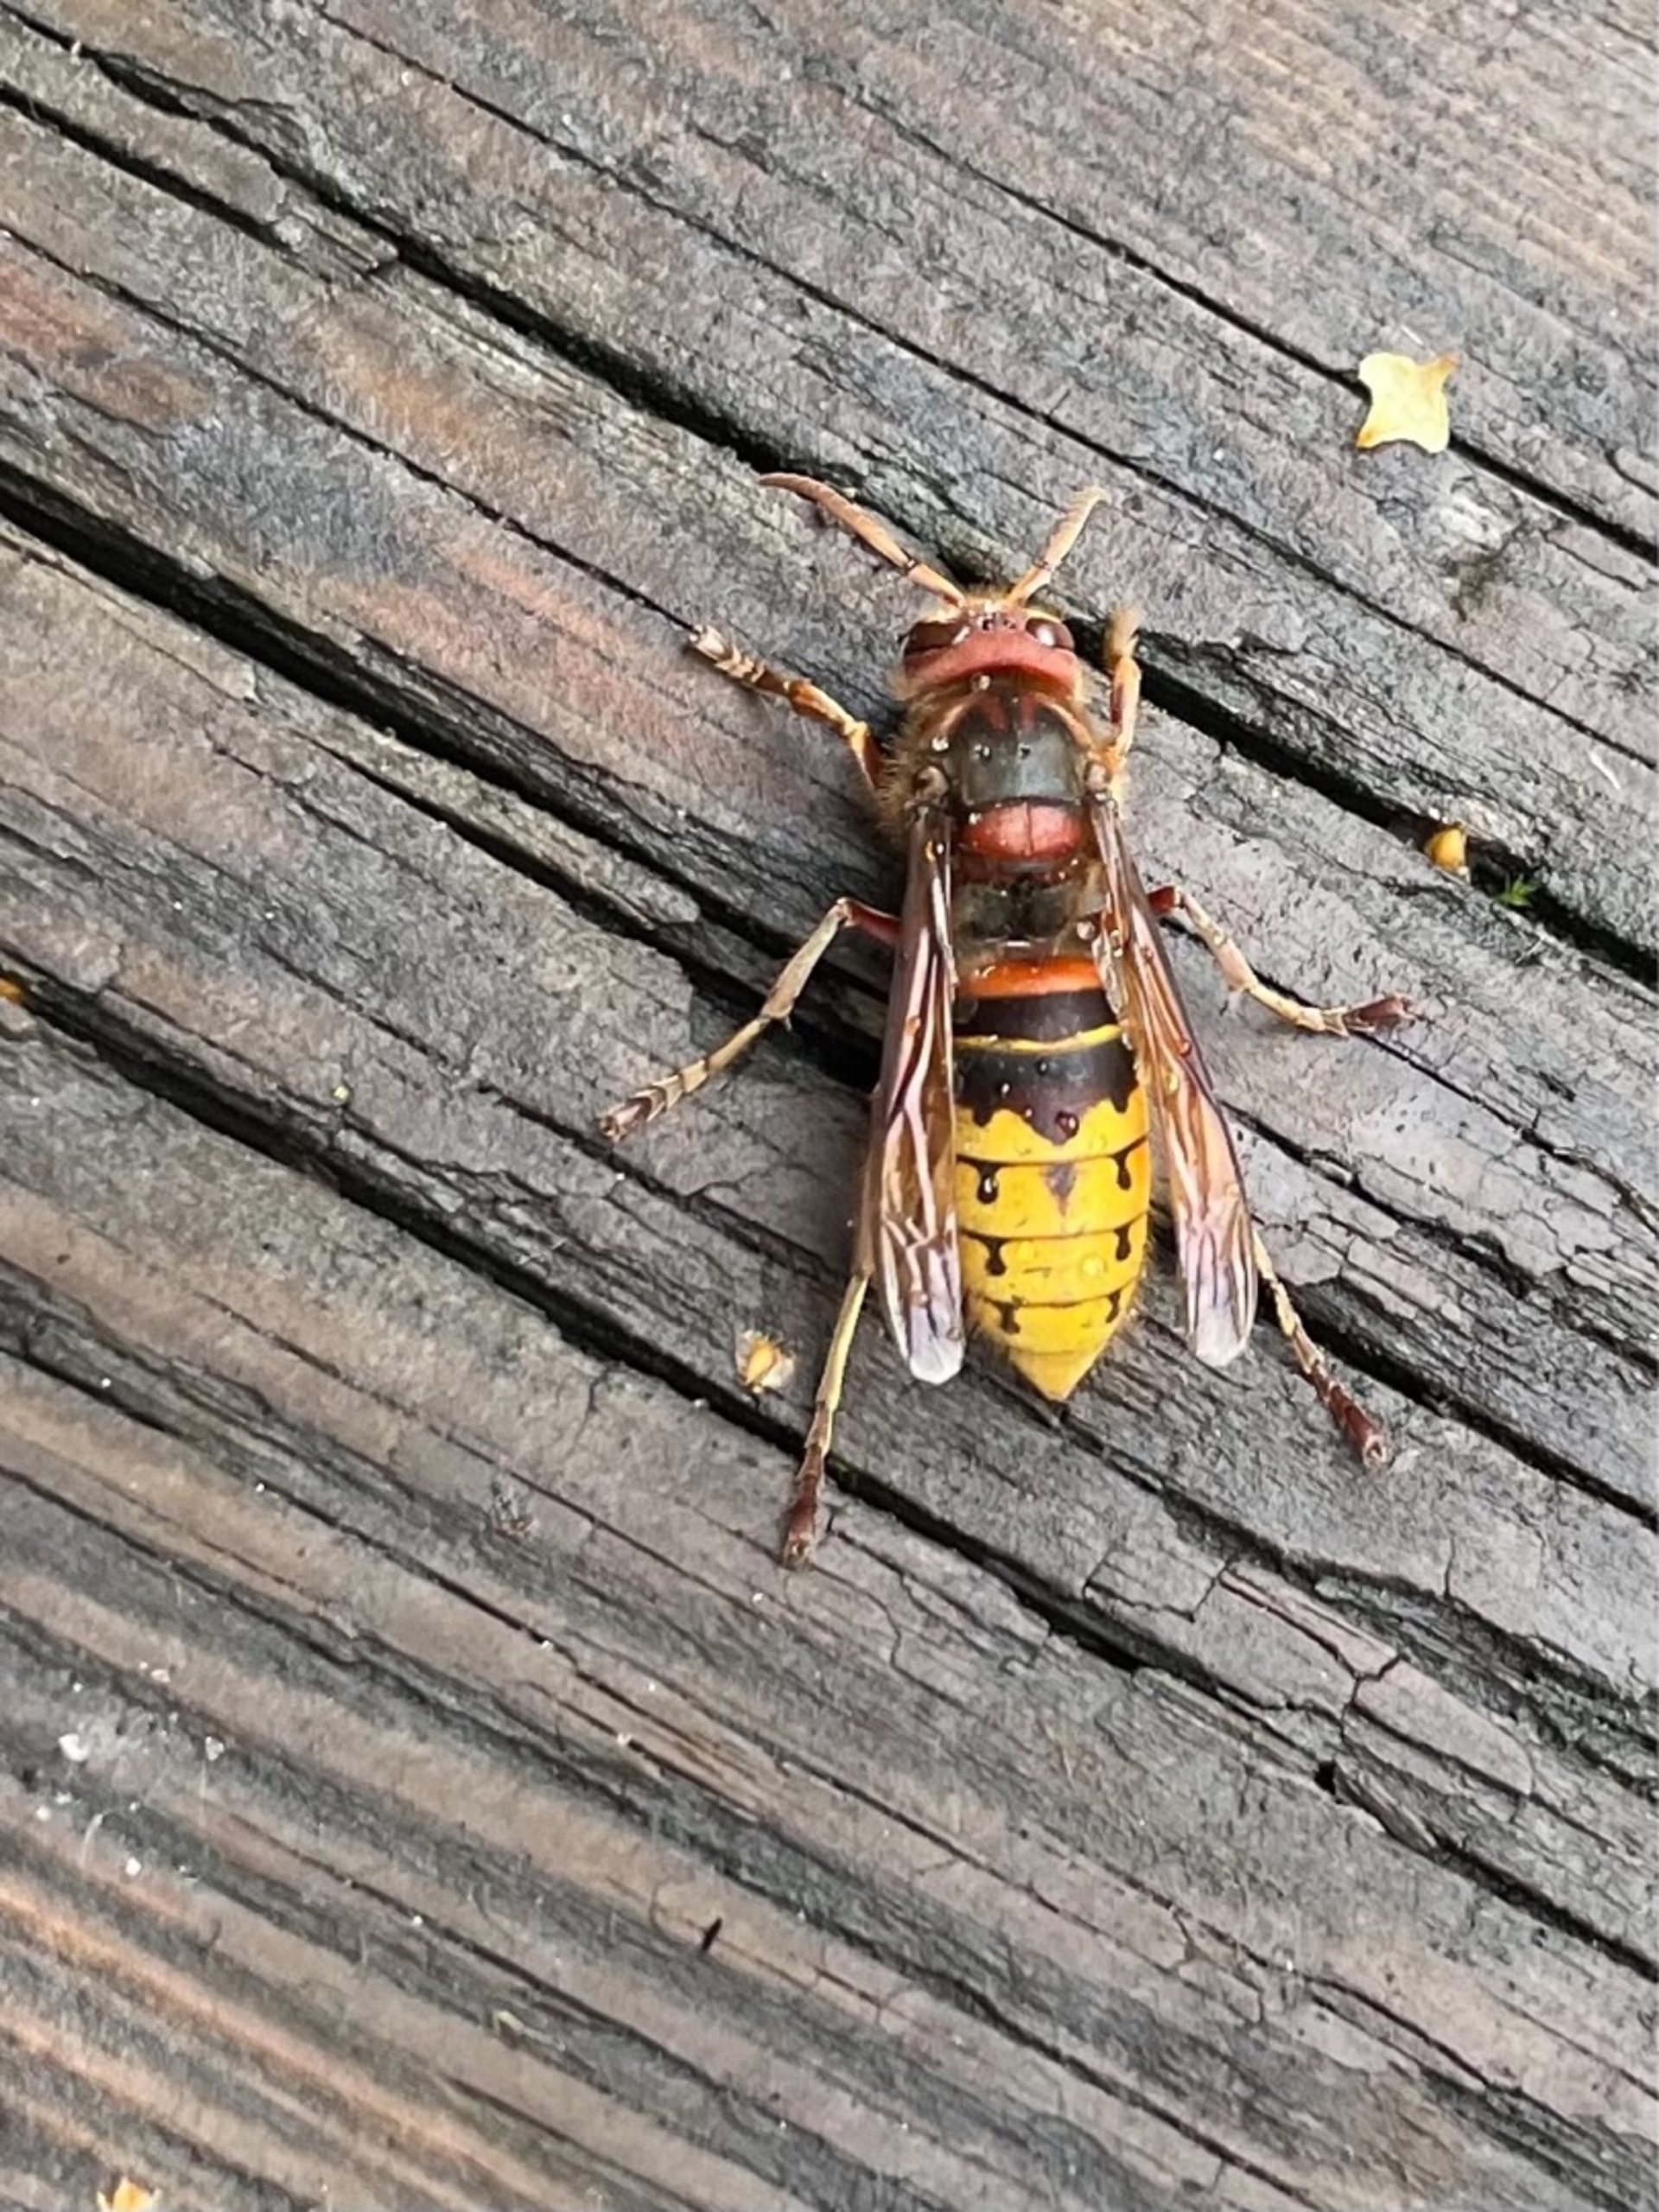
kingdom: Animalia
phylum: Arthropoda
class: Insecta
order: Hymenoptera
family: Vespidae
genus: Vespa
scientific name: Vespa crabro
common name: Stor gedehams
